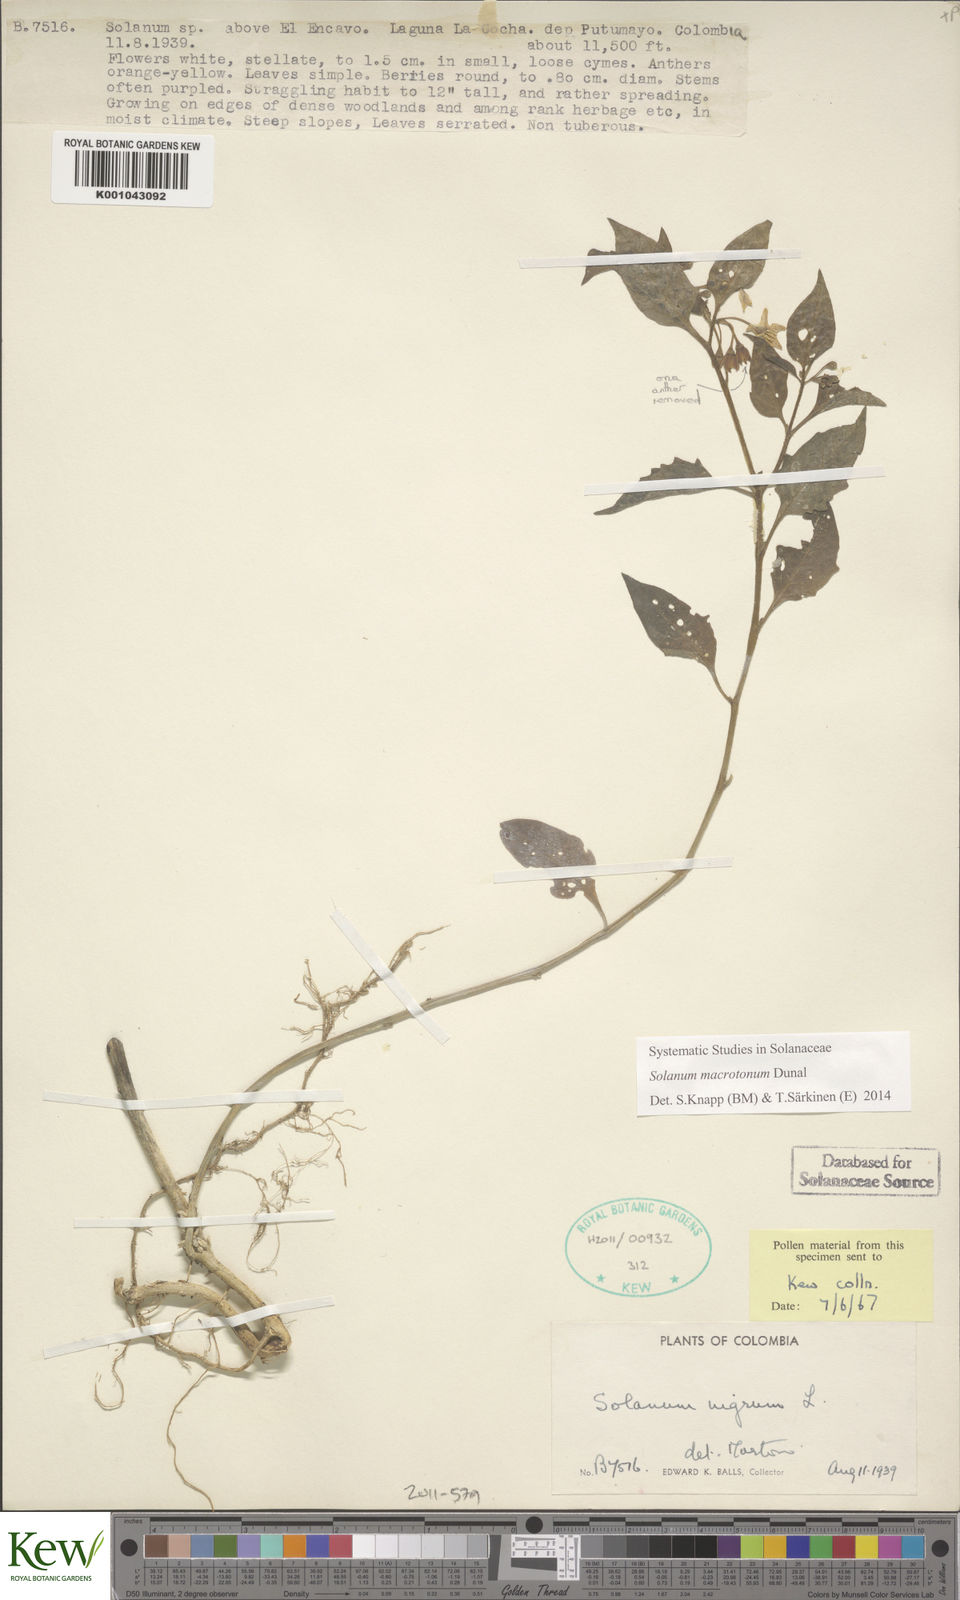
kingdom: Plantae
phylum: Tracheophyta
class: Magnoliopsida
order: Solanales
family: Solanaceae
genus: Solanum
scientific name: Solanum macrotonum
